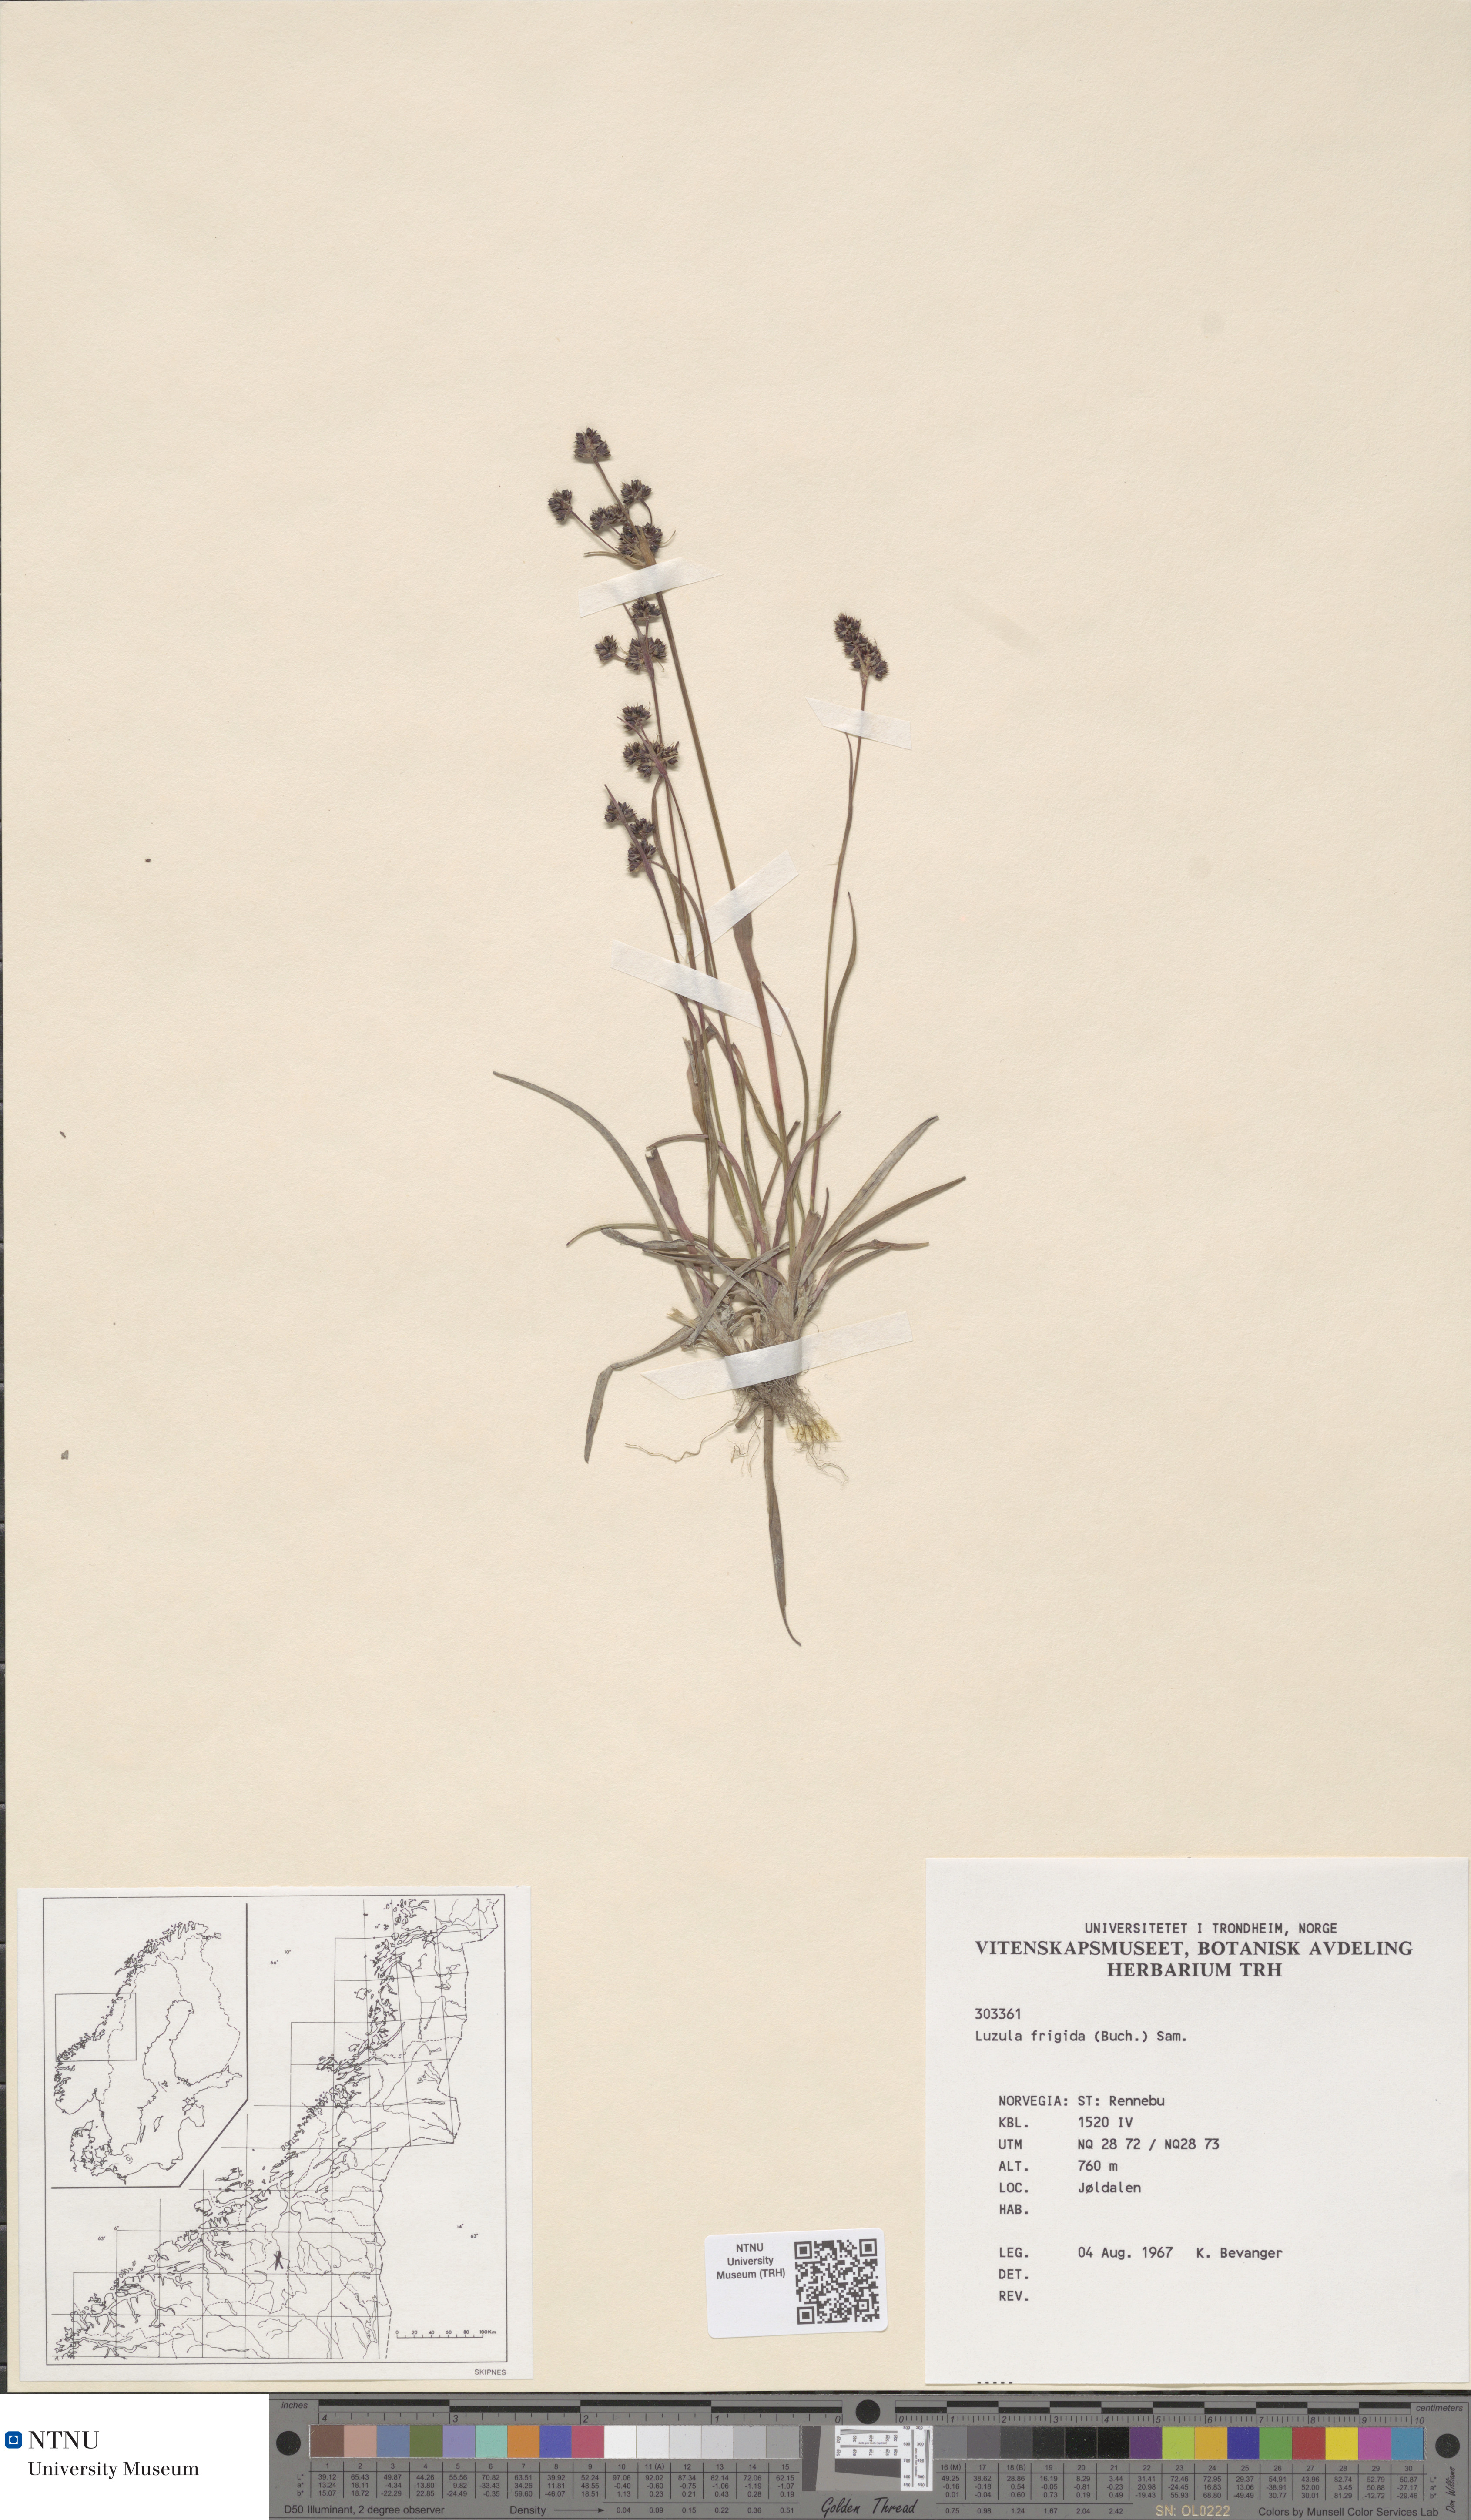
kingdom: Plantae
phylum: Tracheophyta
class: Liliopsida
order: Poales
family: Juncaceae
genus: Luzula
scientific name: Luzula multiflora
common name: Heath wood-rush
